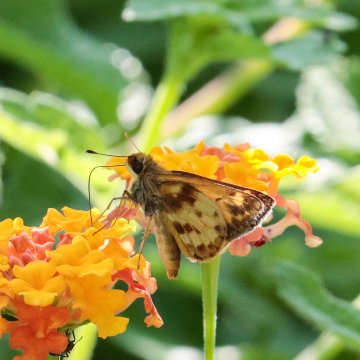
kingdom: Animalia
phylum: Arthropoda
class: Insecta
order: Lepidoptera
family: Hesperiidae
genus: Lon
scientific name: Lon zabulon
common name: Zabulon Skipper
